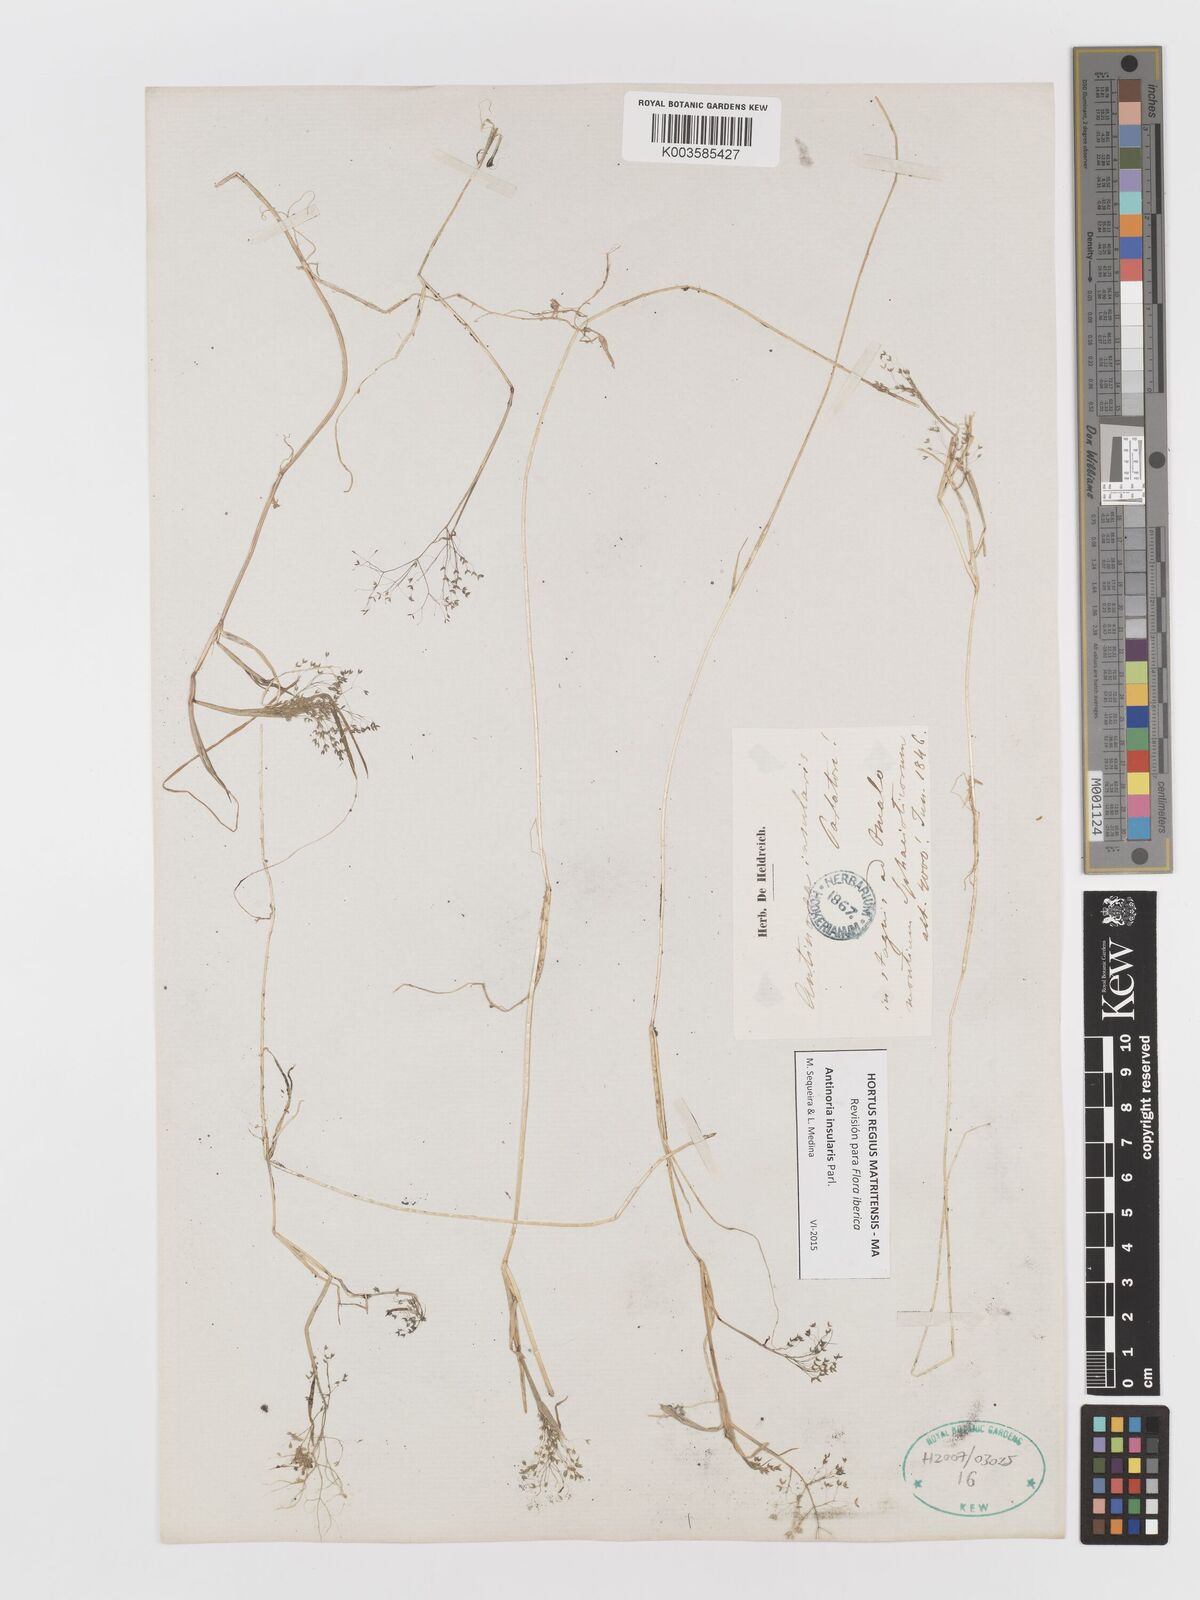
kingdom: Plantae
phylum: Tracheophyta
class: Liliopsida
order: Poales
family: Poaceae
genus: Antinoria
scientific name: Antinoria insularis
